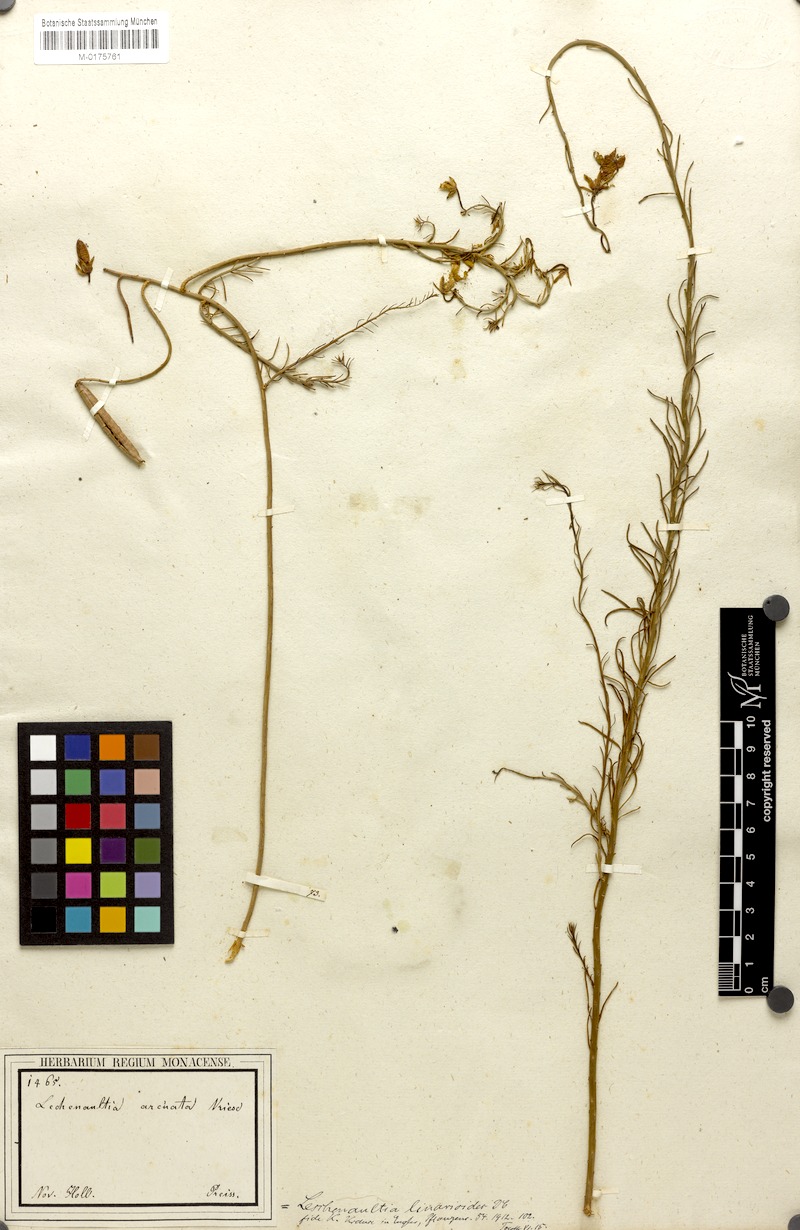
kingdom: Plantae
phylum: Tracheophyta
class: Magnoliopsida
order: Asterales
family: Goodeniaceae
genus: Lechenaultia
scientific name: Lechenaultia linarioides
